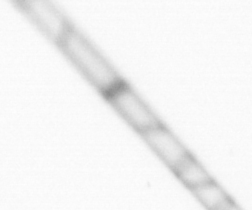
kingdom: Chromista
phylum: Ochrophyta
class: Bacillariophyceae
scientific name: Bacillariophyceae
